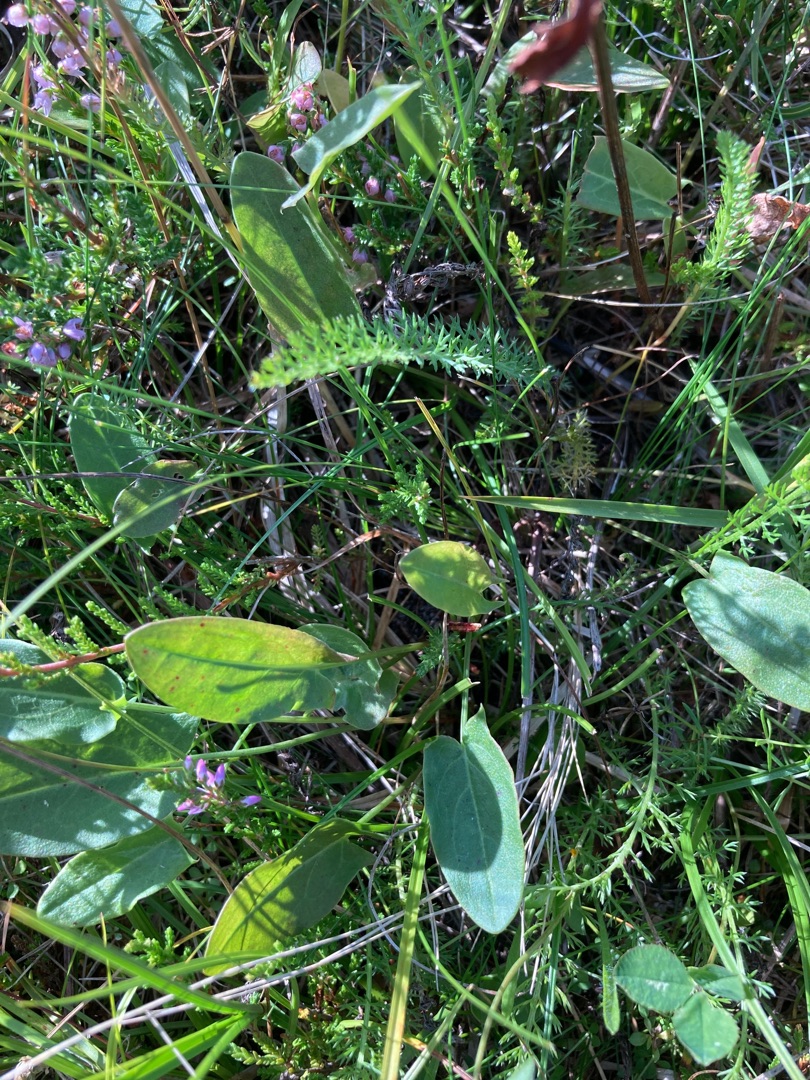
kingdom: Plantae
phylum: Tracheophyta
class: Magnoliopsida
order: Caryophyllales
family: Polygonaceae
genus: Rumex
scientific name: Rumex acetosa
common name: Almindelig syre
